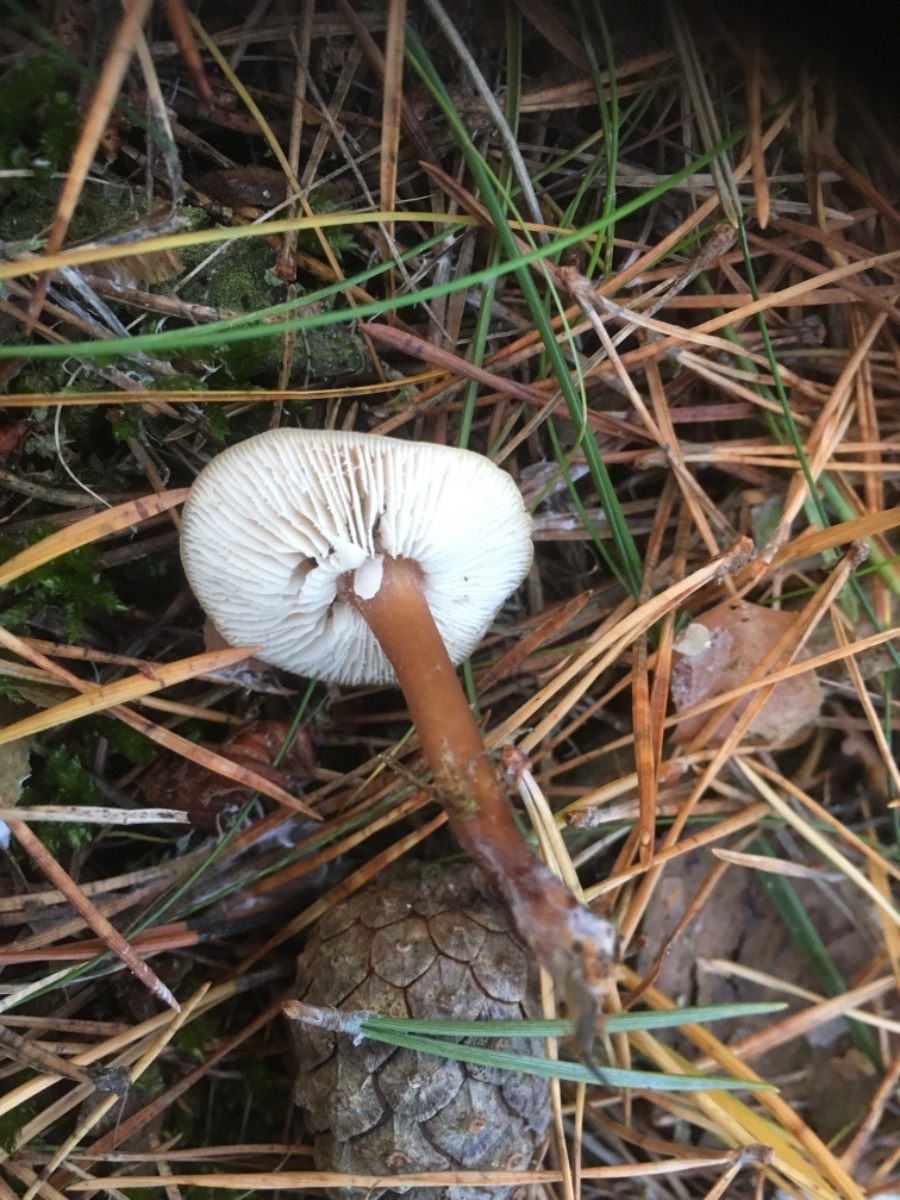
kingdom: Fungi
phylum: Basidiomycota
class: Agaricomycetes
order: Agaricales
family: Omphalotaceae
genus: Rhodocollybia
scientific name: Rhodocollybia asema
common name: horngrå fladhat
